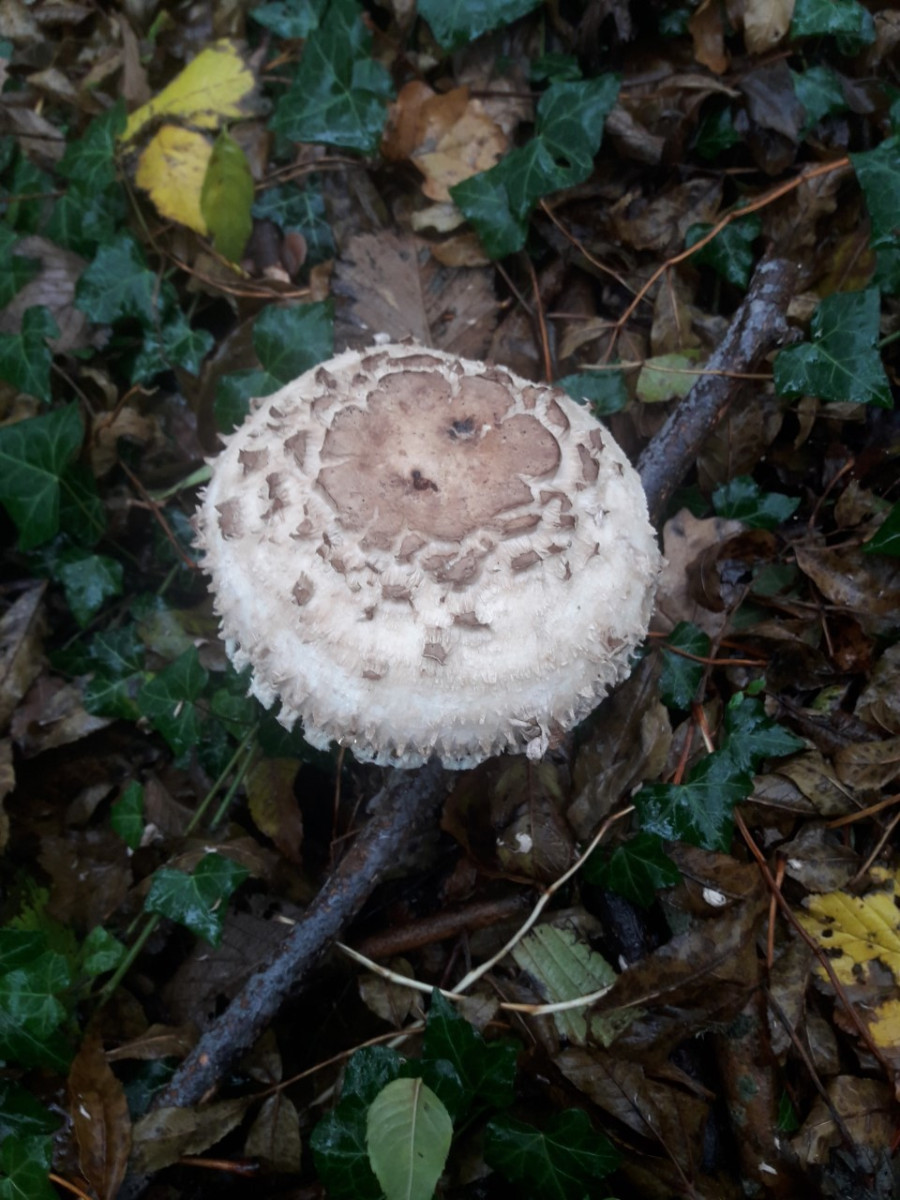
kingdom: Fungi
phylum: Basidiomycota
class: Agaricomycetes
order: Agaricales
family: Agaricaceae
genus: Chlorophyllum
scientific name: Chlorophyllum rhacodes
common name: ægte rabarberhat
